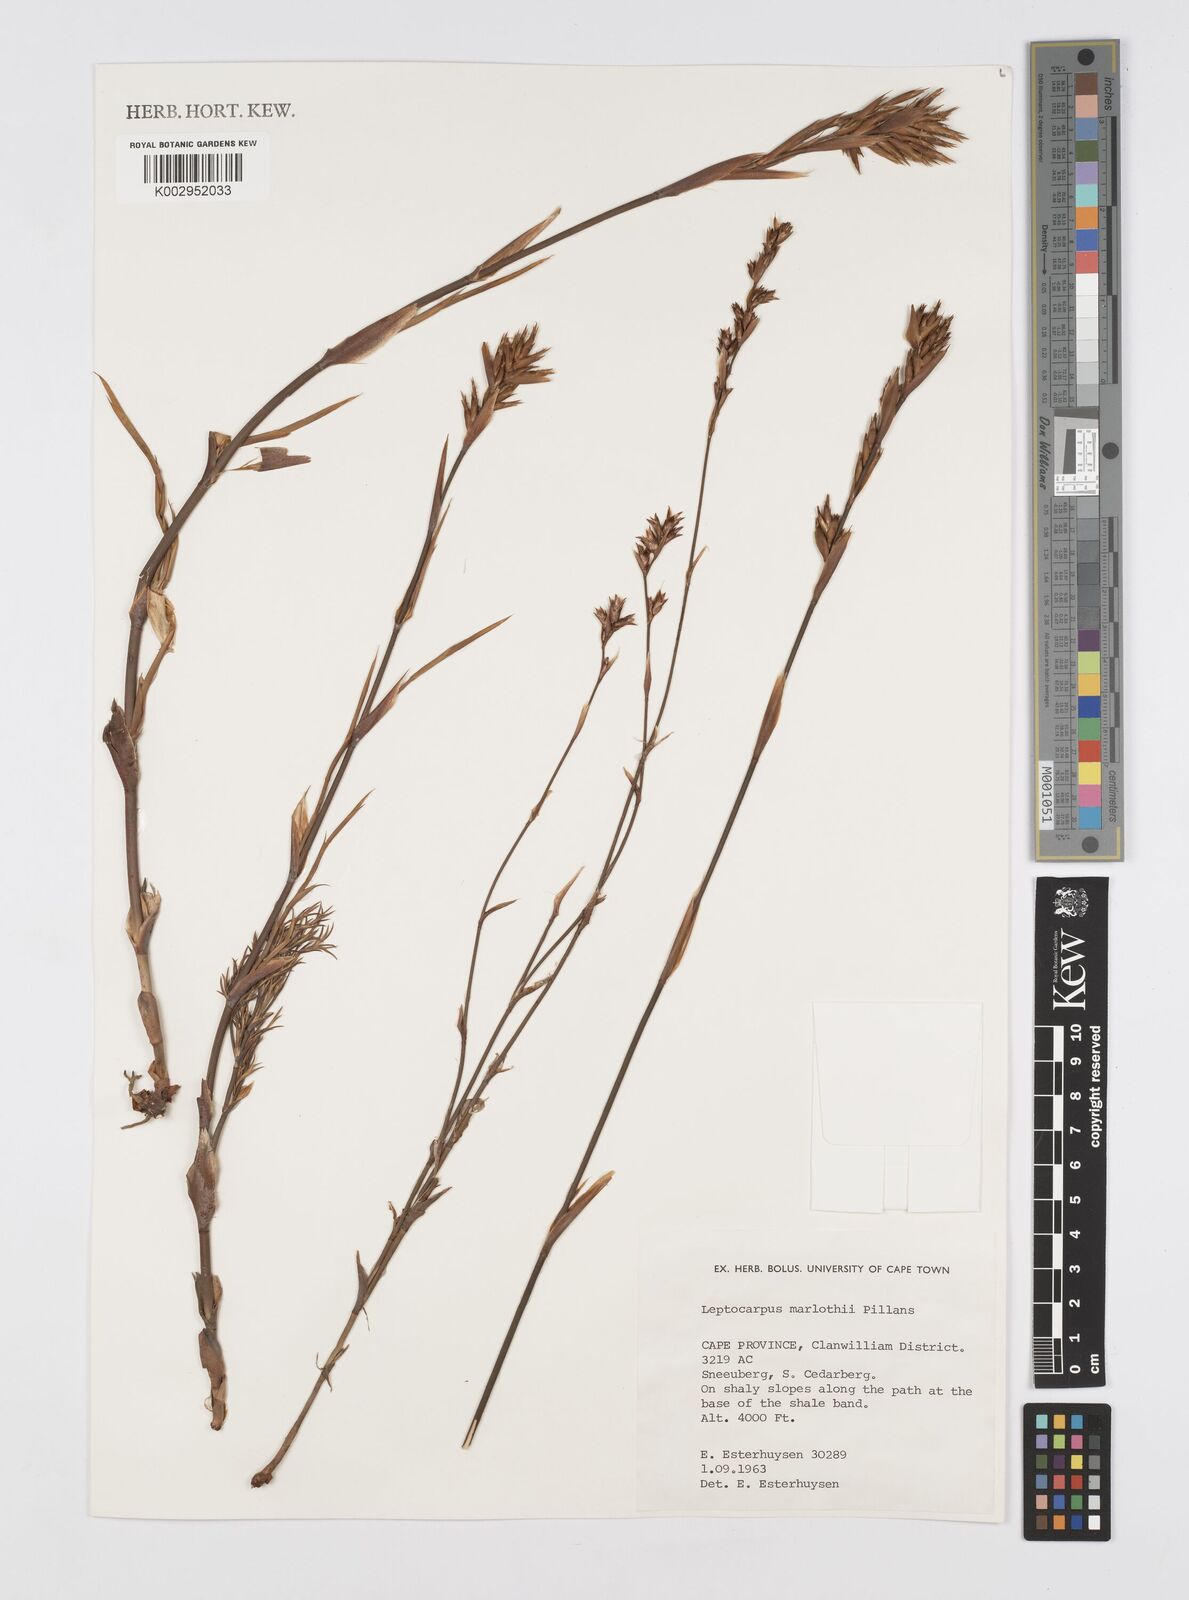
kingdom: Plantae
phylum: Tracheophyta
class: Liliopsida
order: Poales
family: Restionaceae
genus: Restio
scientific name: Restio marlothii
